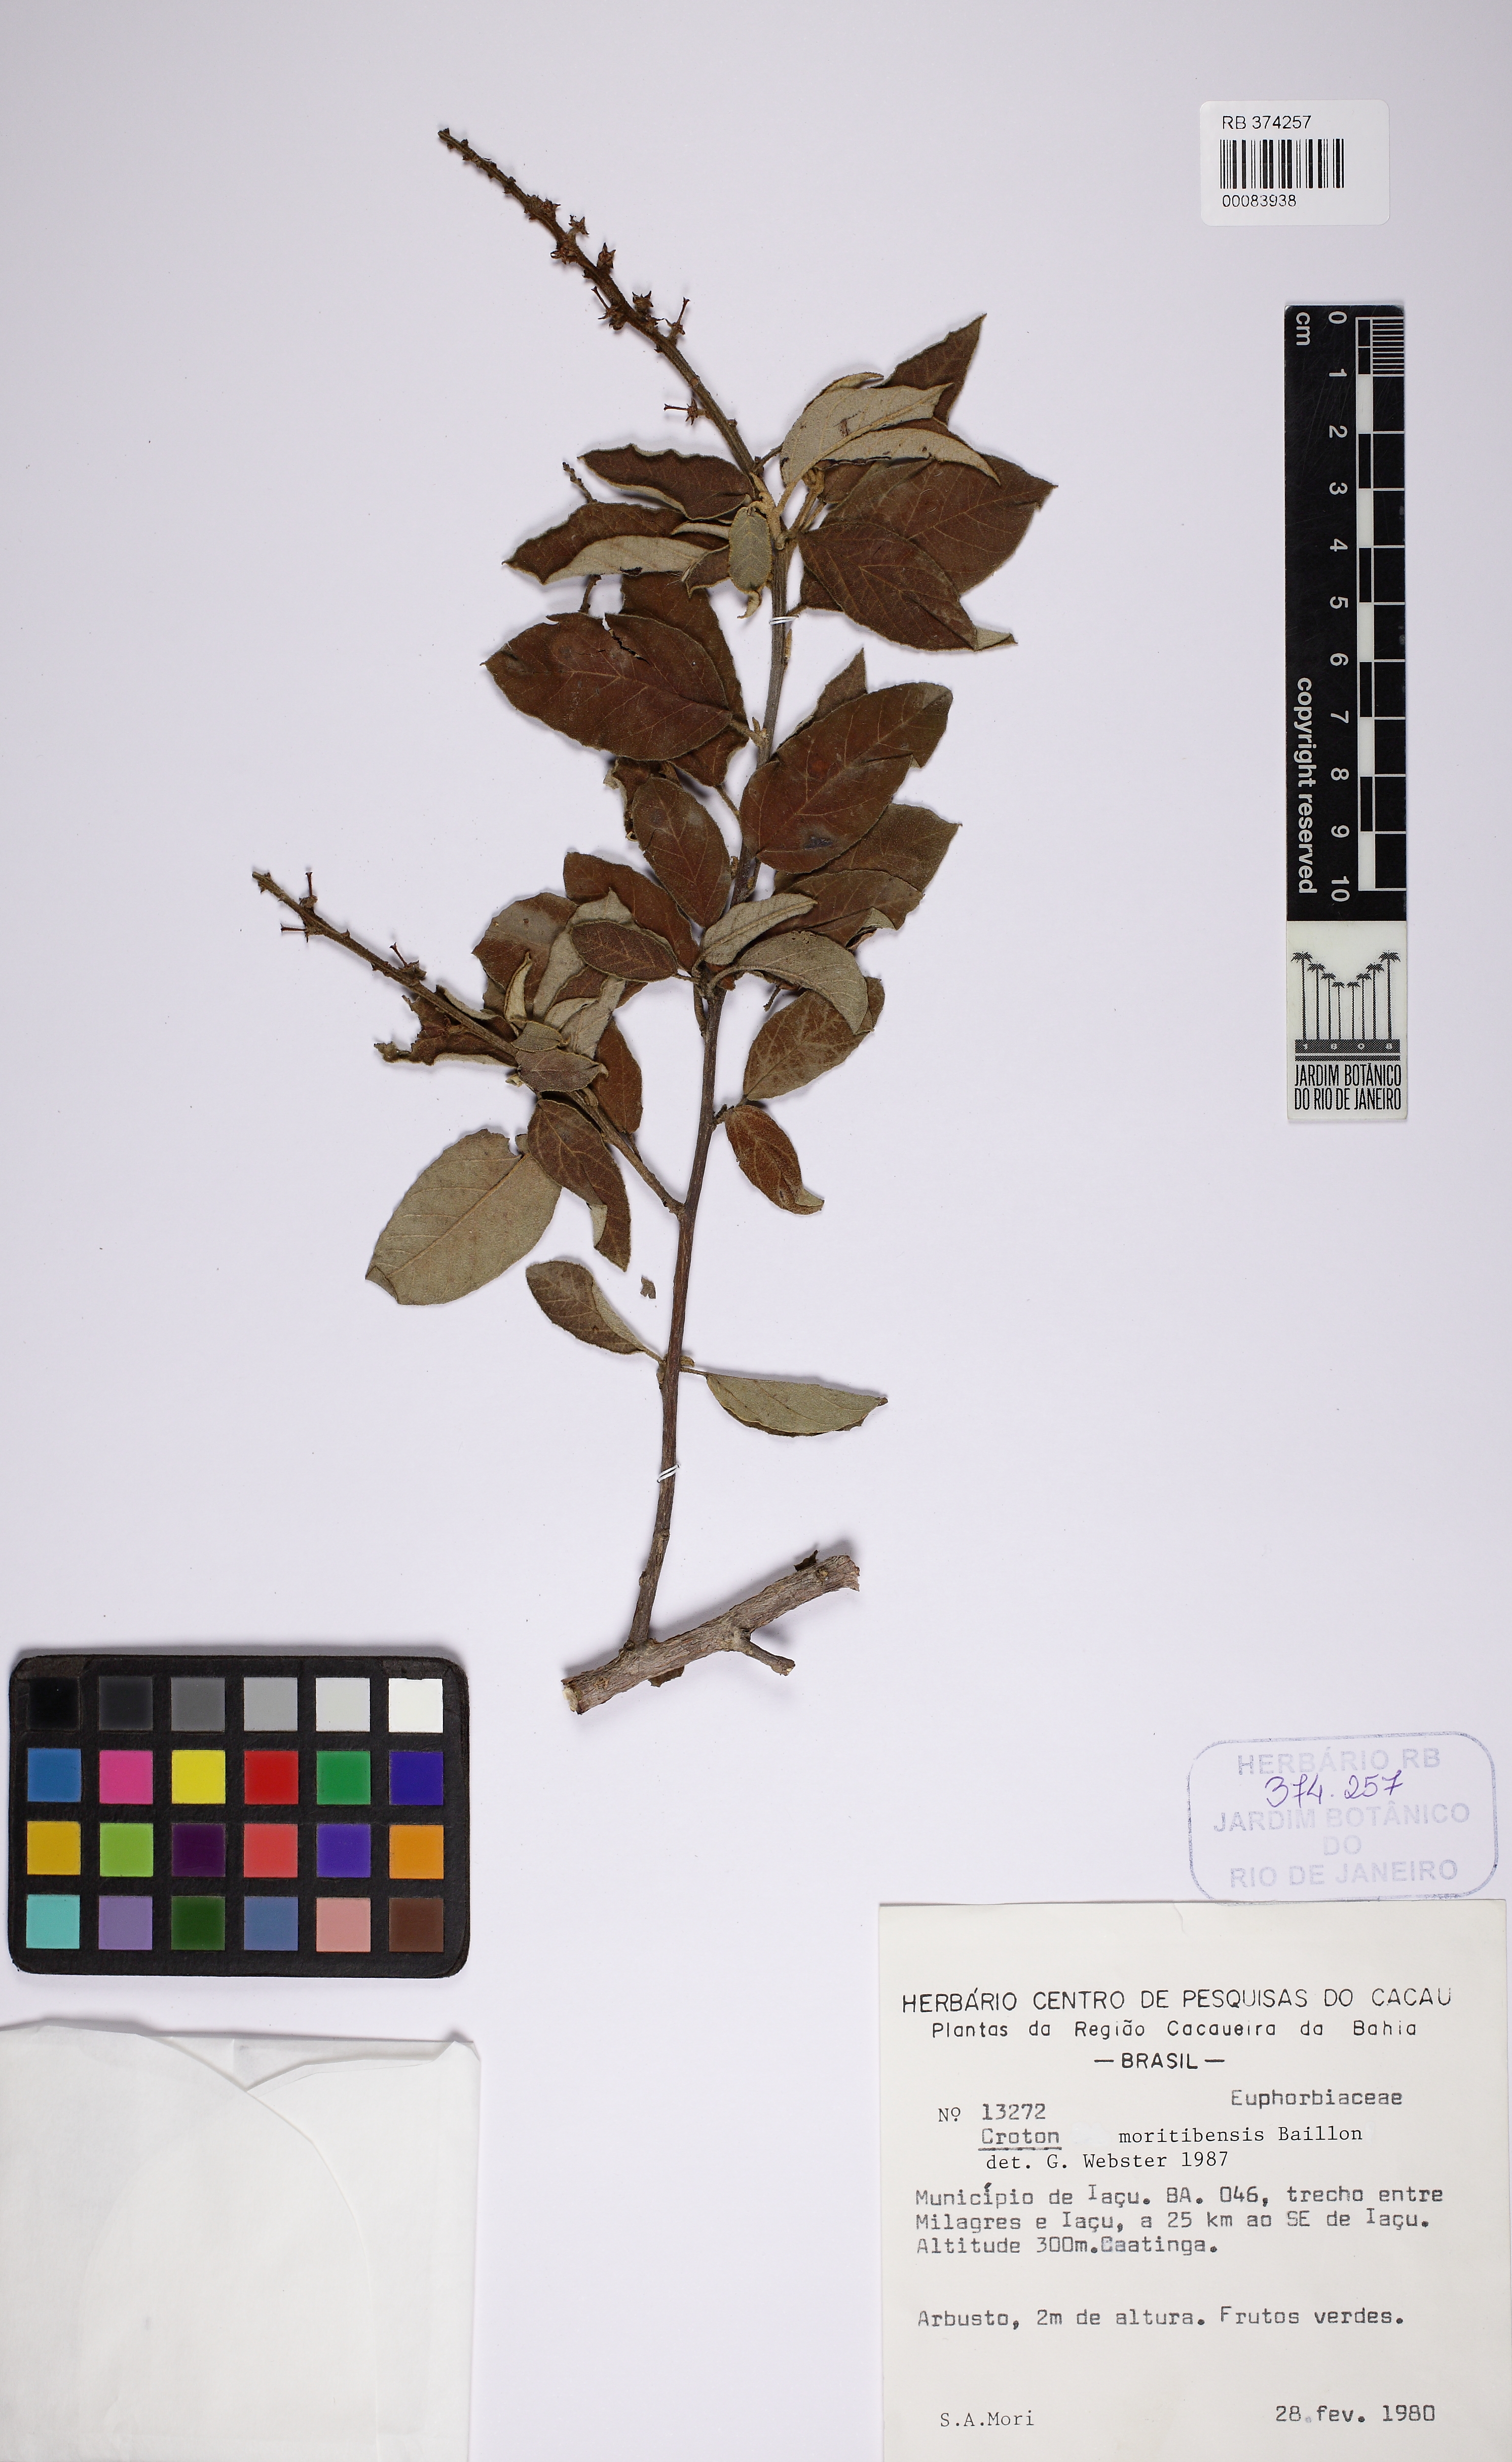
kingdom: Plantae
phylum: Tracheophyta
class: Magnoliopsida
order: Malpighiales
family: Euphorbiaceae
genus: Croton
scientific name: Croton heliotropiifolius
